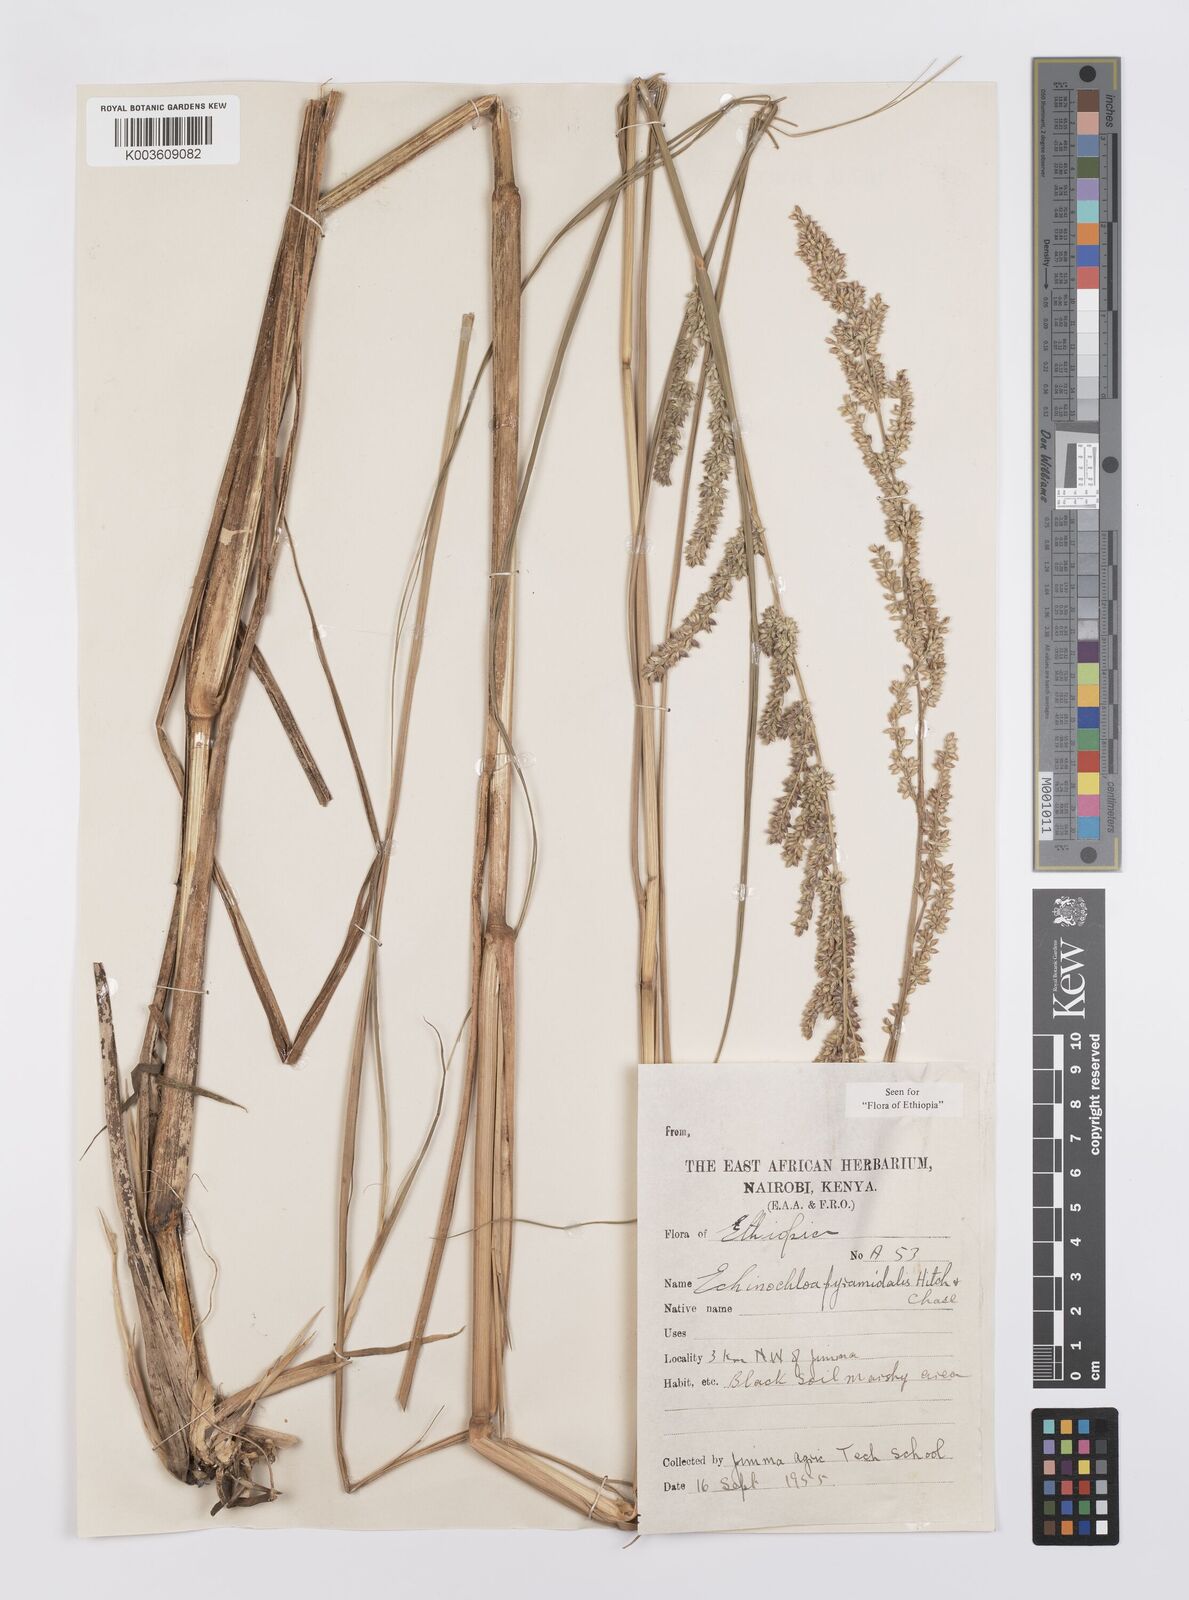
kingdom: Plantae
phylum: Tracheophyta
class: Liliopsida
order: Poales
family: Poaceae
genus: Echinochloa
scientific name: Echinochloa pyramidalis
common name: Antelope grass
